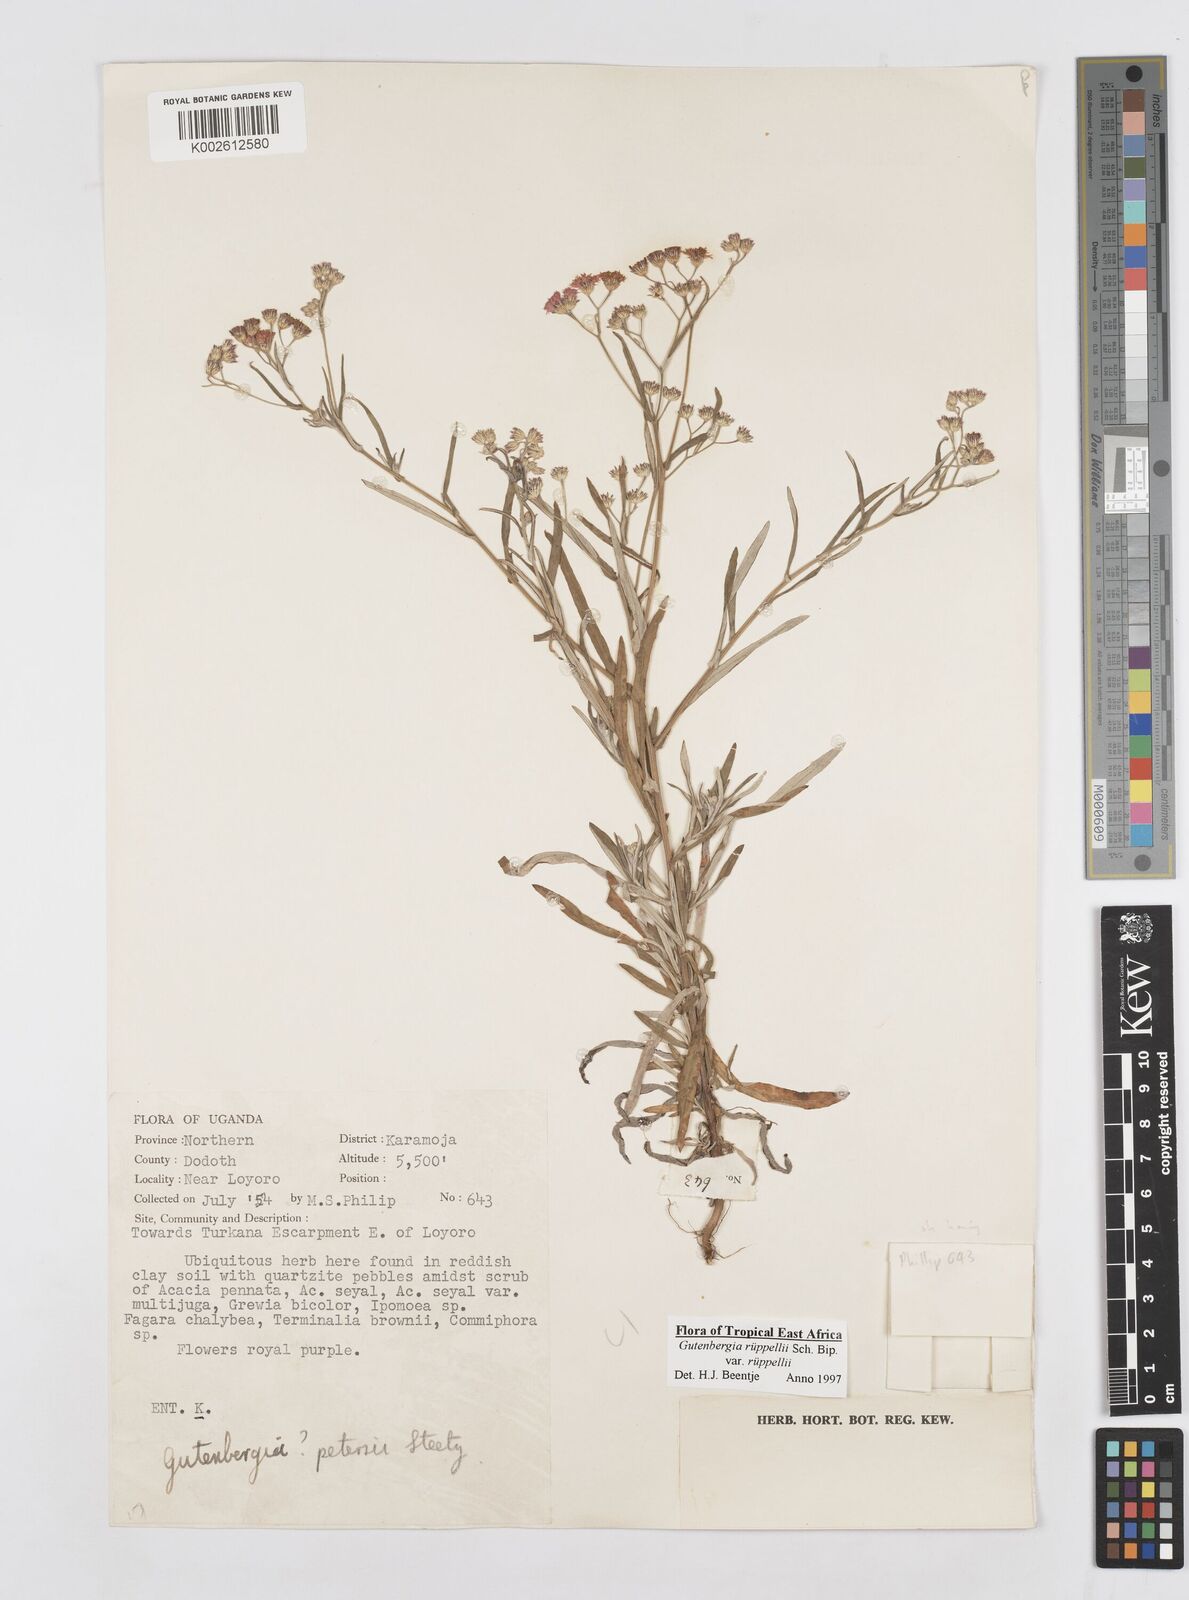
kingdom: Plantae
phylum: Tracheophyta
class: Magnoliopsida
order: Asterales
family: Asteraceae
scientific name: Asteraceae
